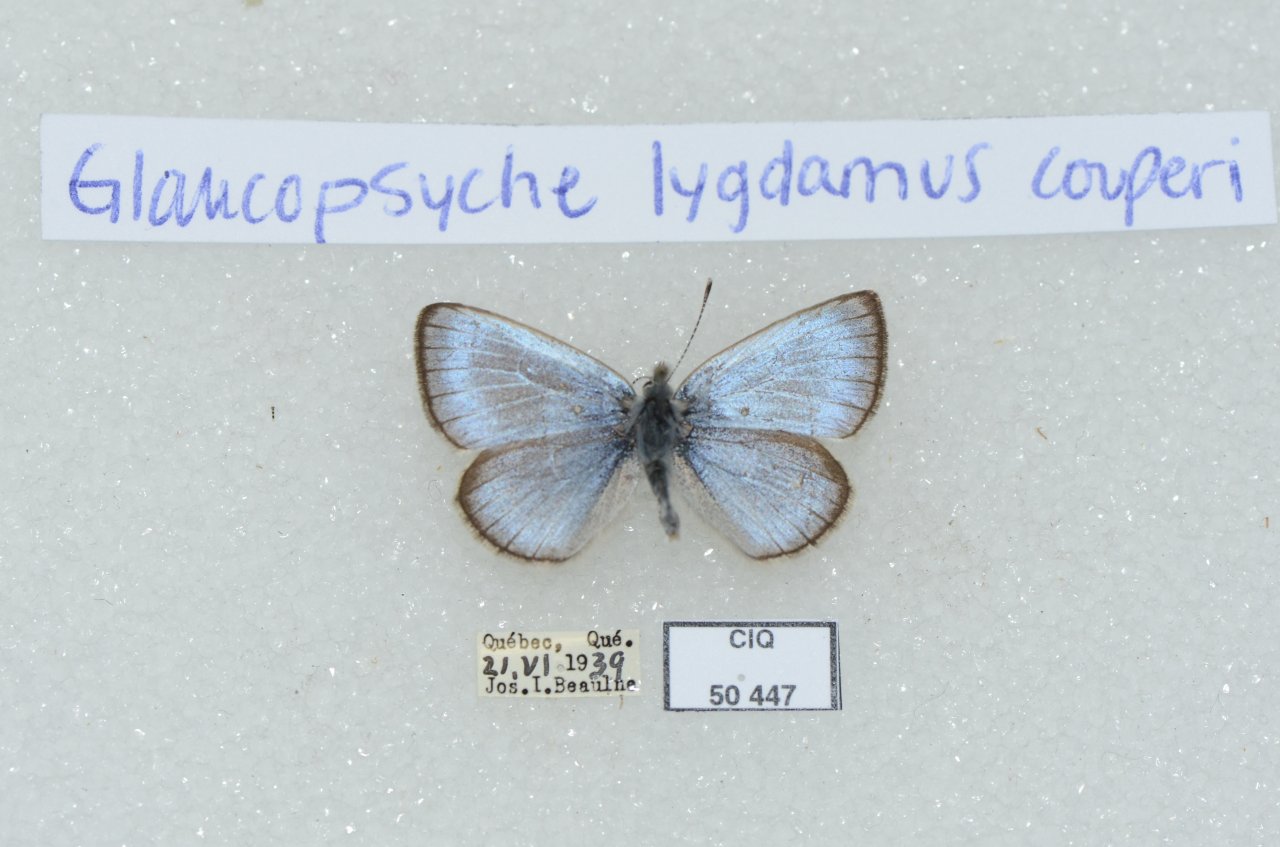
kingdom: Animalia
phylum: Arthropoda
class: Insecta
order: Lepidoptera
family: Lycaenidae
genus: Glaucopsyche
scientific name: Glaucopsyche lygdamus
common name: Silvery Blue
